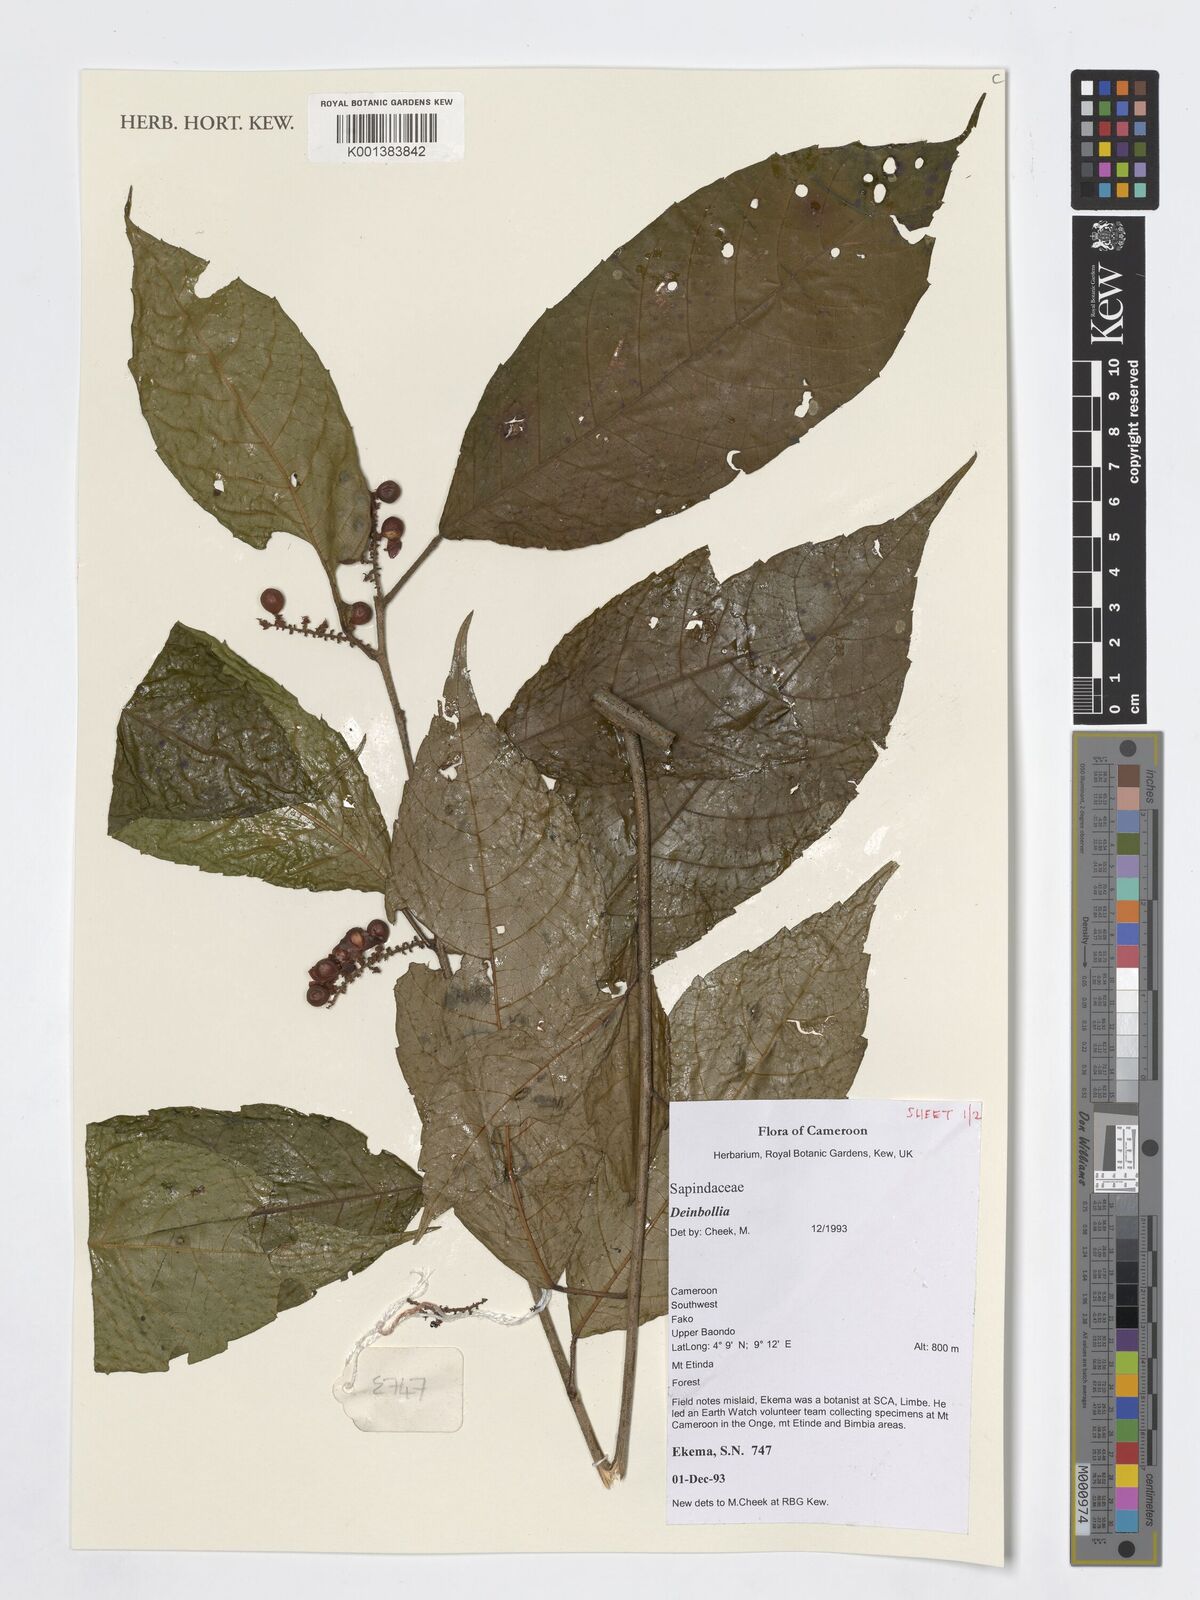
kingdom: Plantae
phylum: Tracheophyta
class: Magnoliopsida
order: Sapindales
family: Sapindaceae
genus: Deinbollia
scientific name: Deinbollia
